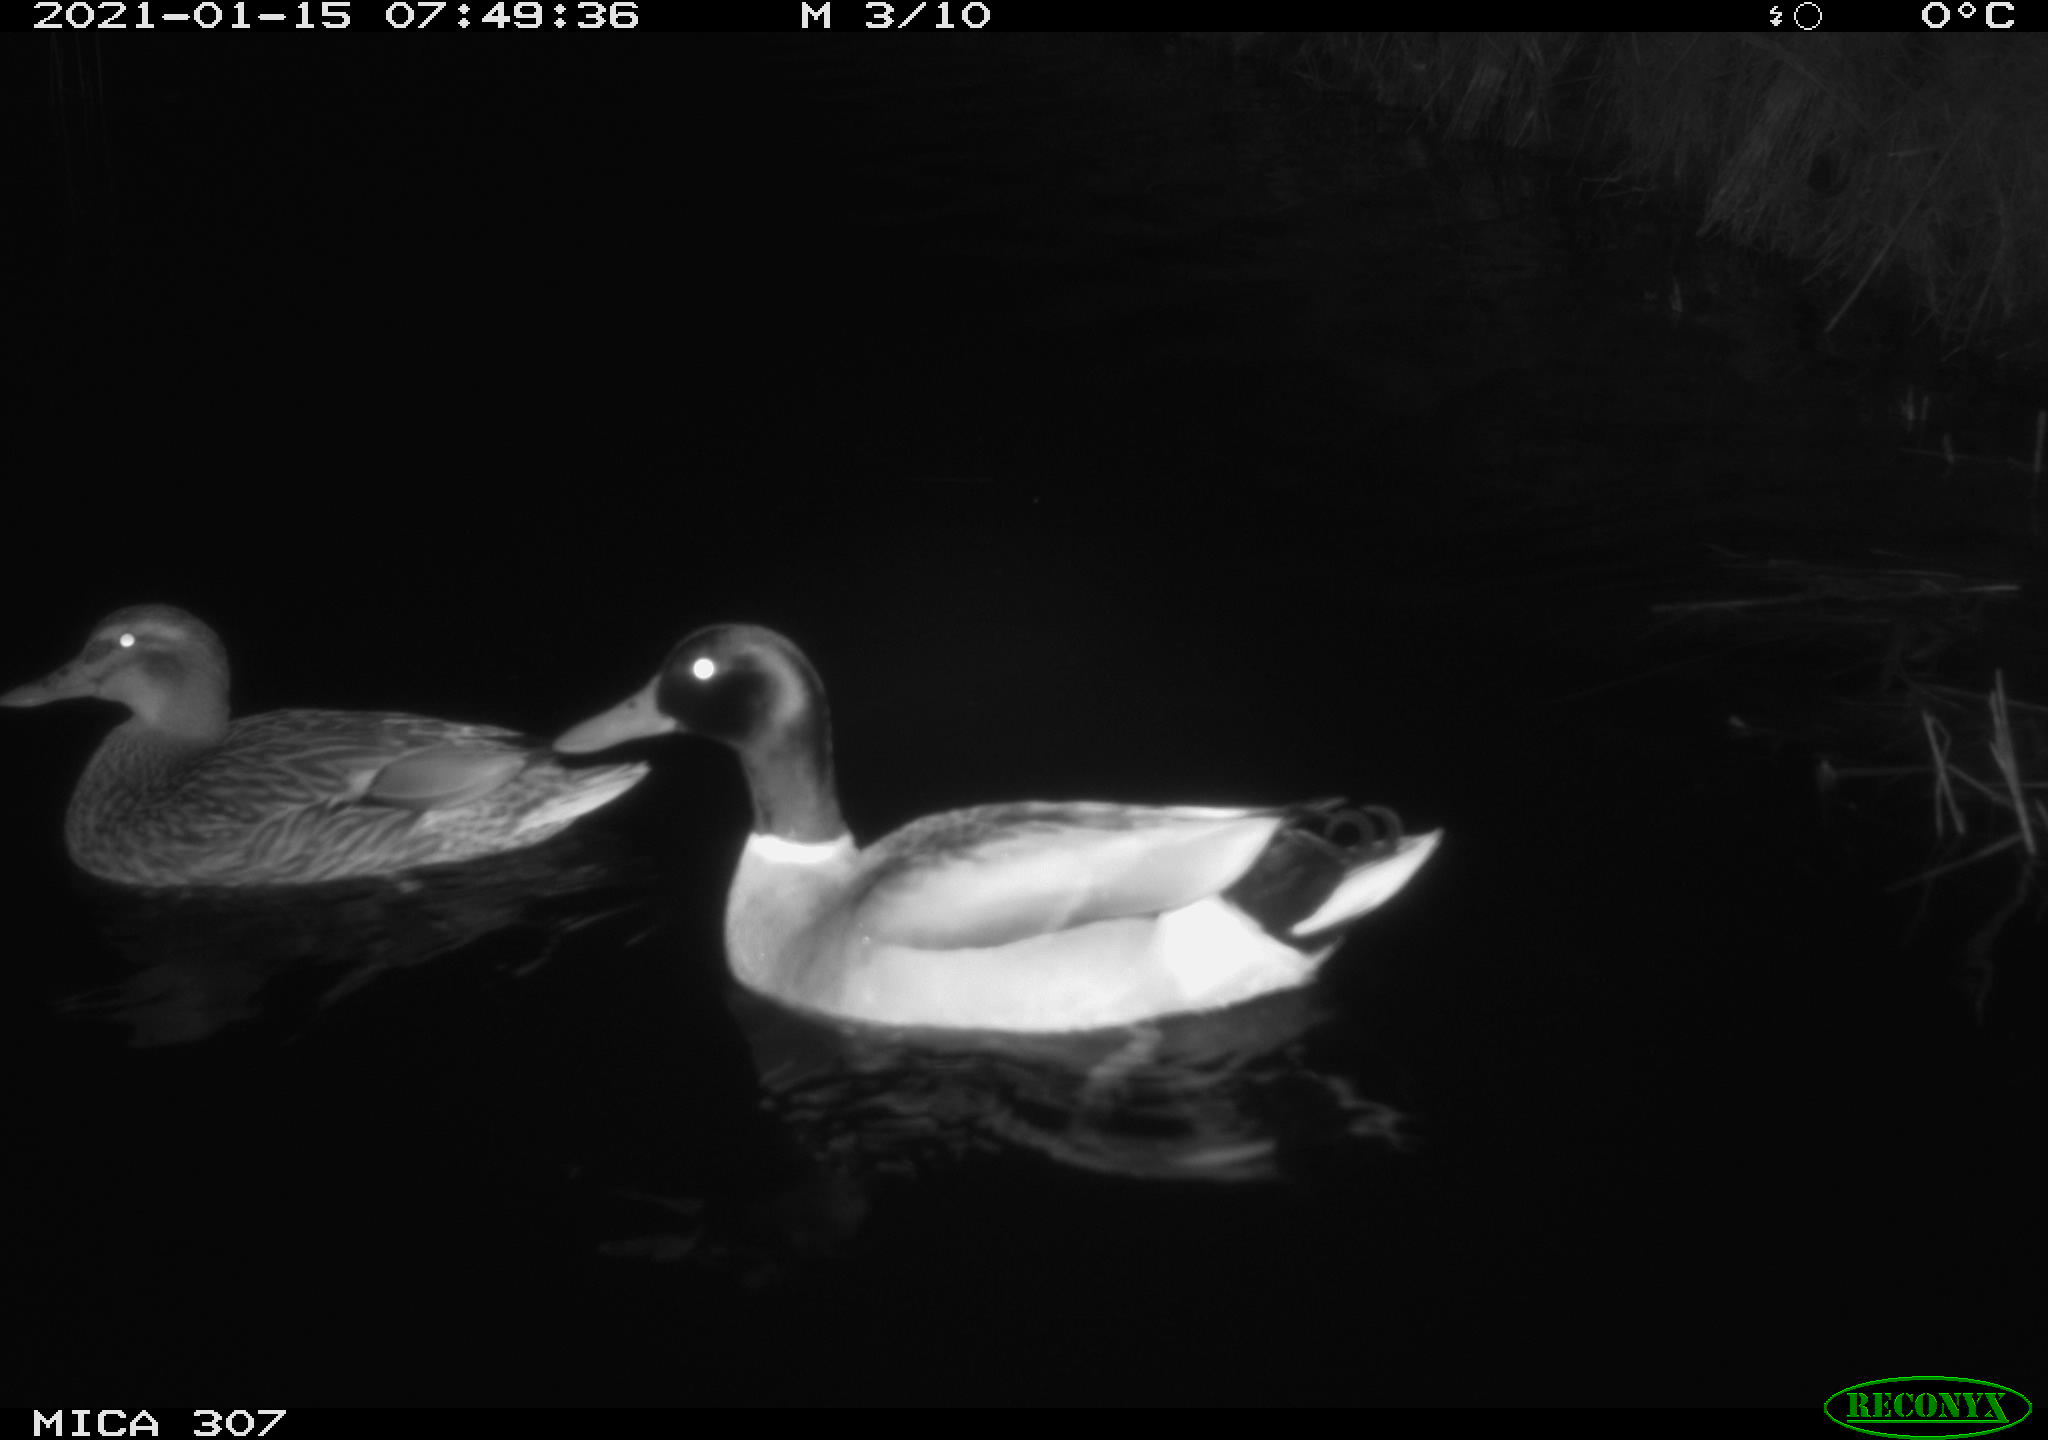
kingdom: Animalia
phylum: Chordata
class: Aves
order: Anseriformes
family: Anatidae
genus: Anas
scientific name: Anas platyrhynchos
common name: Mallard
